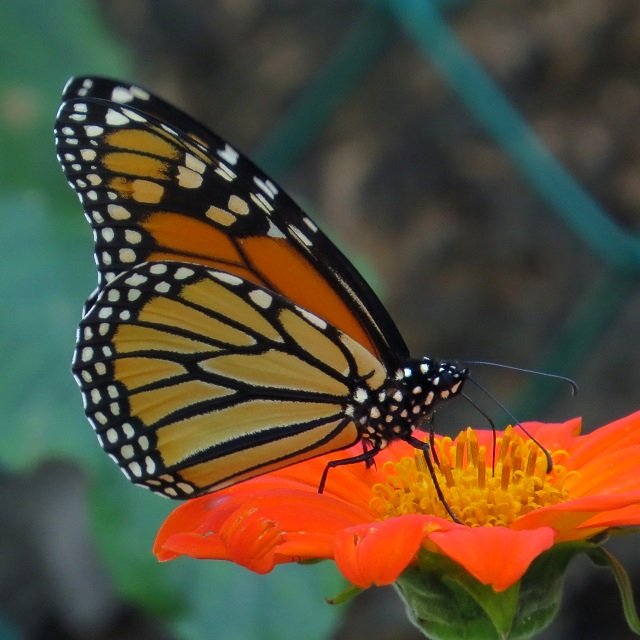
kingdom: Animalia
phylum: Arthropoda
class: Insecta
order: Lepidoptera
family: Nymphalidae
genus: Danaus
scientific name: Danaus plexippus
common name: Monarch
